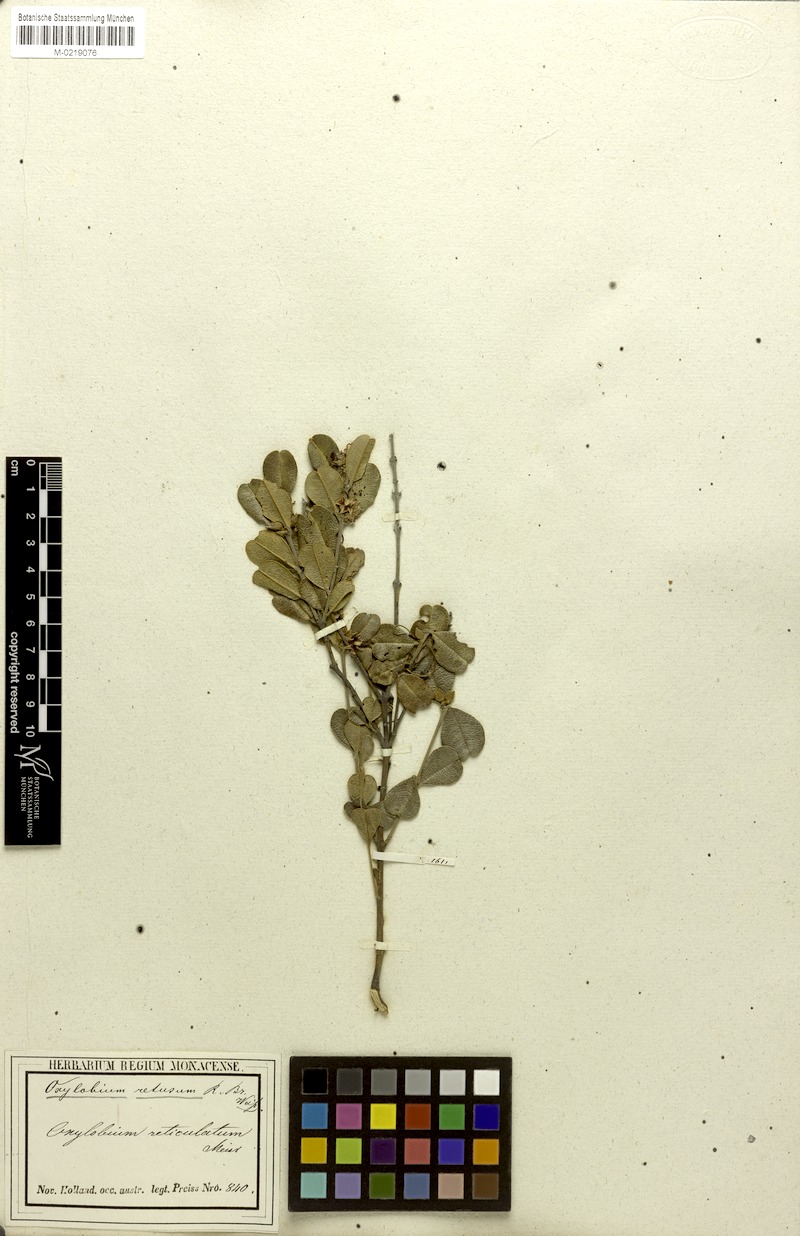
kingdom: Plantae
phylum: Tracheophyta
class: Magnoliopsida
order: Fabales
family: Fabaceae
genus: Gastrolobium
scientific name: Gastrolobium nervosum
